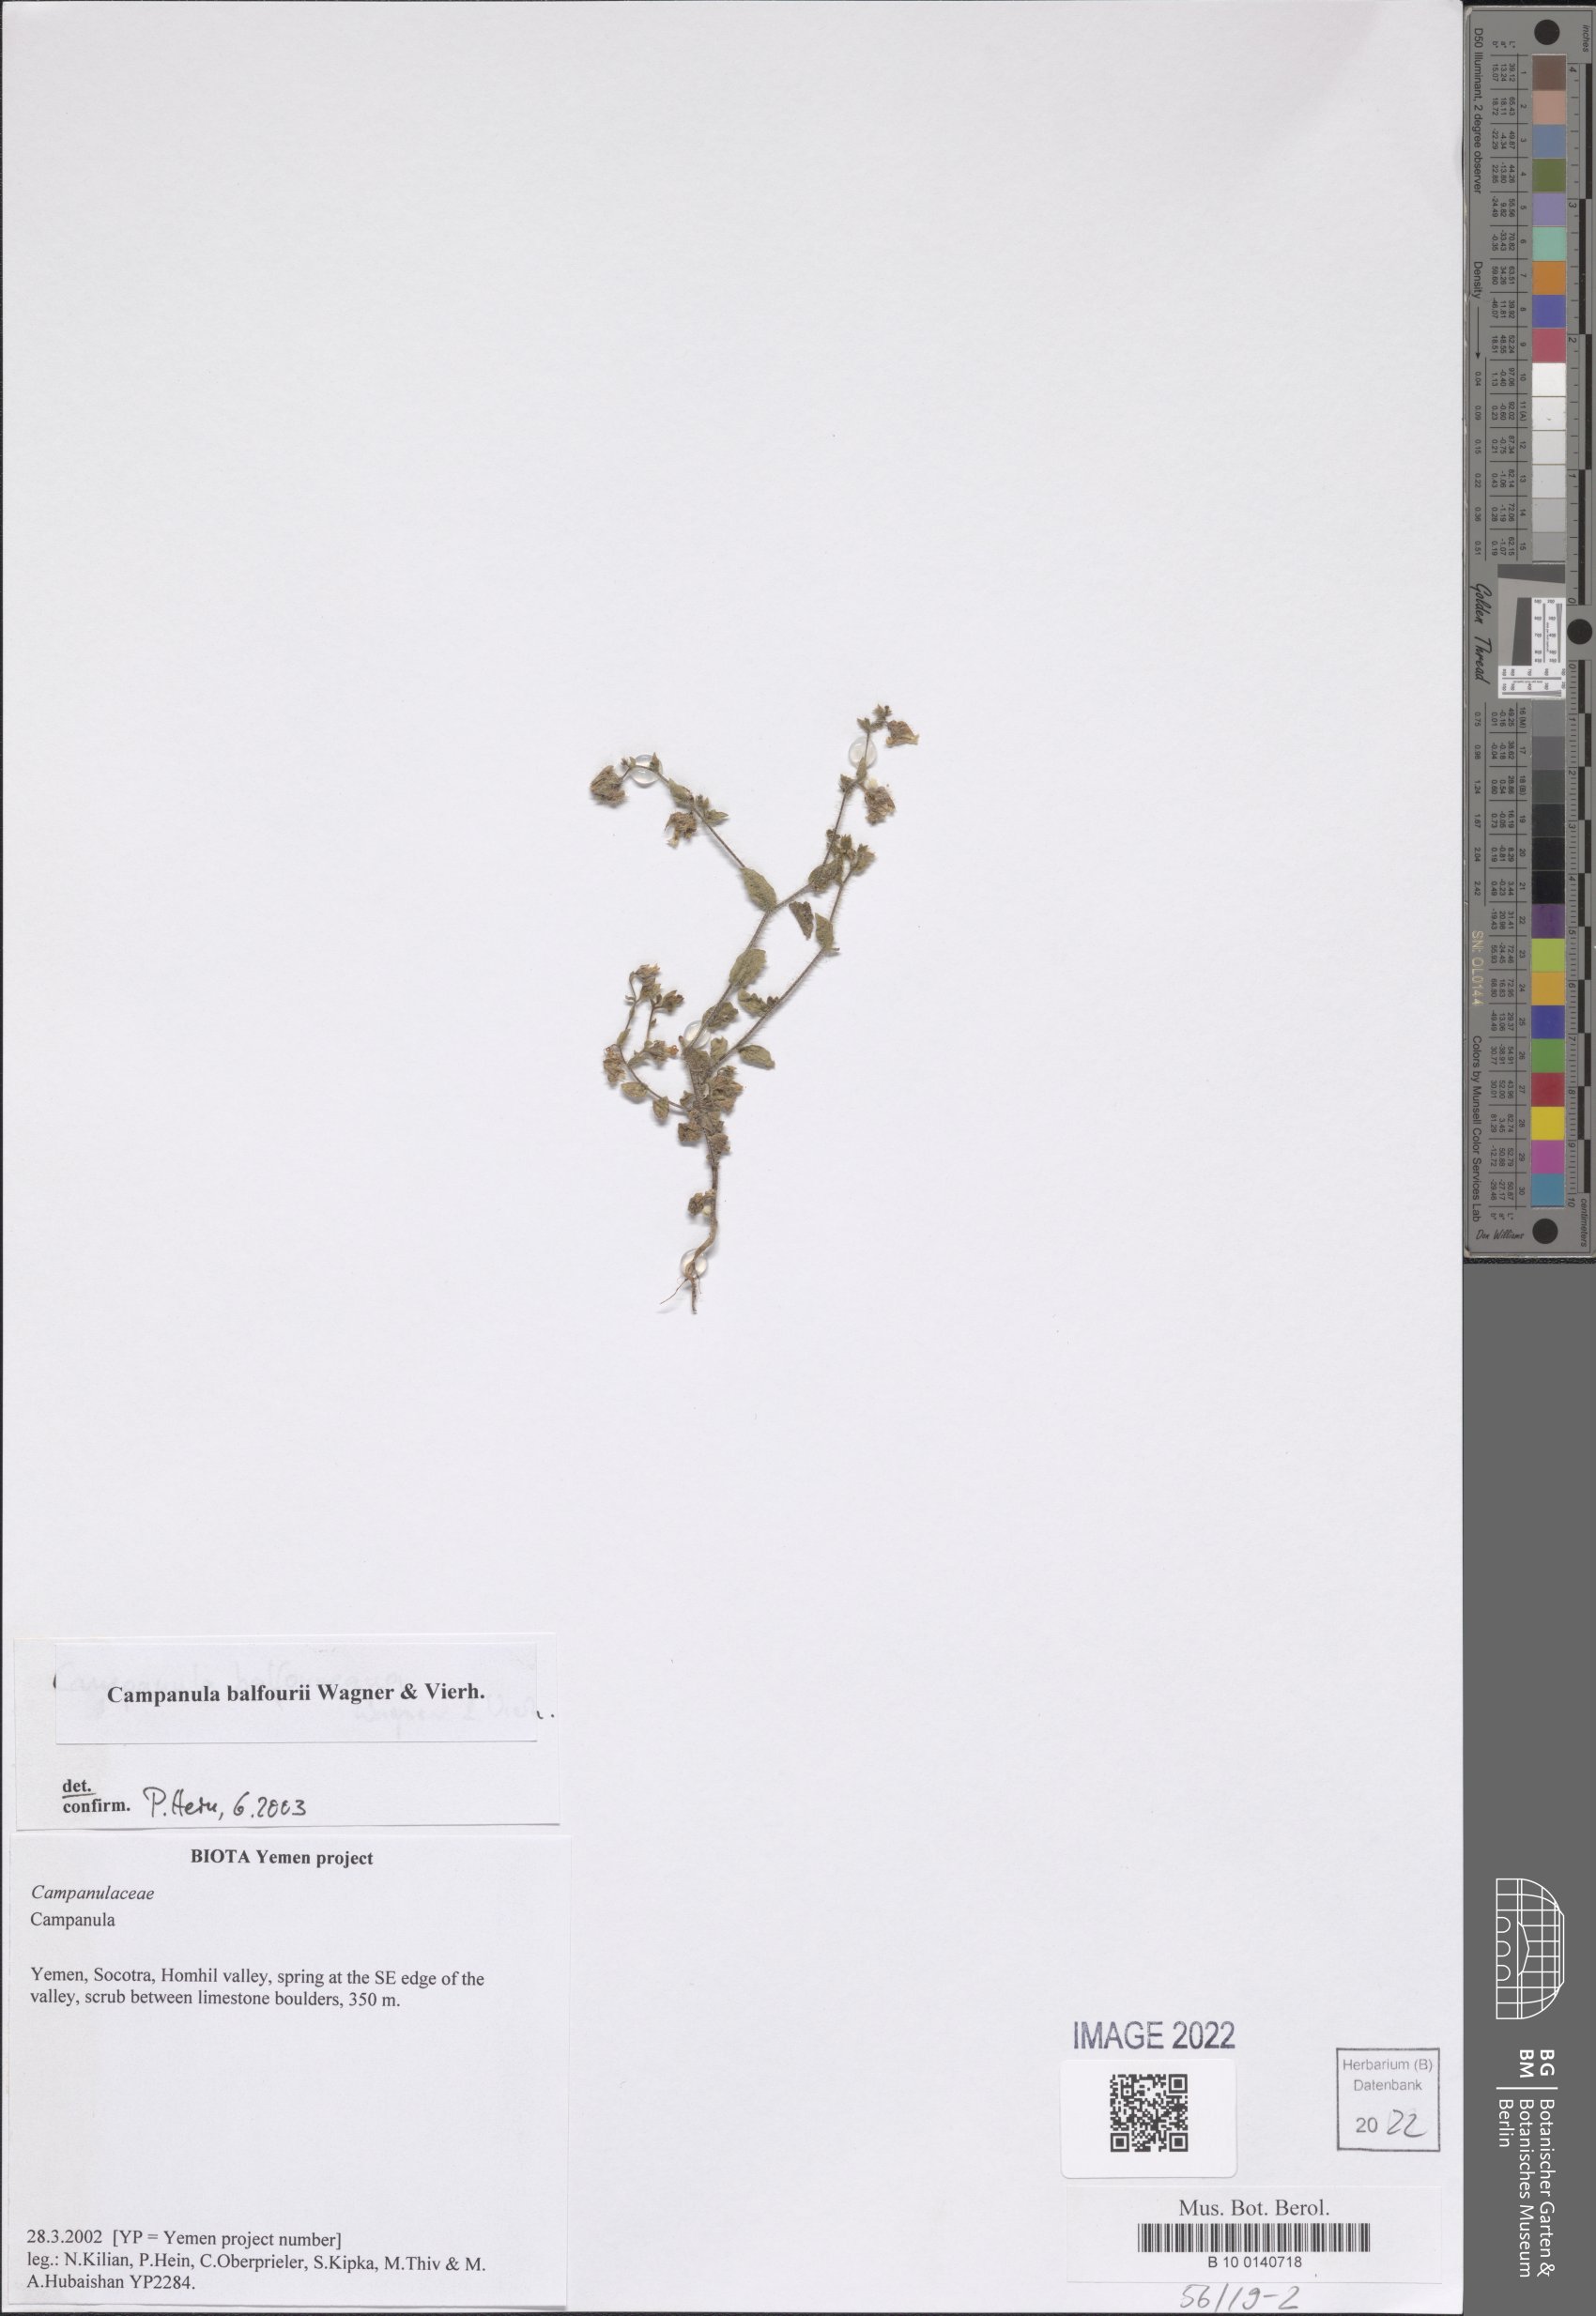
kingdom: Plantae
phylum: Tracheophyta
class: Magnoliopsida
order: Asterales
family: Campanulaceae
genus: Campanula
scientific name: Campanula balfourii
